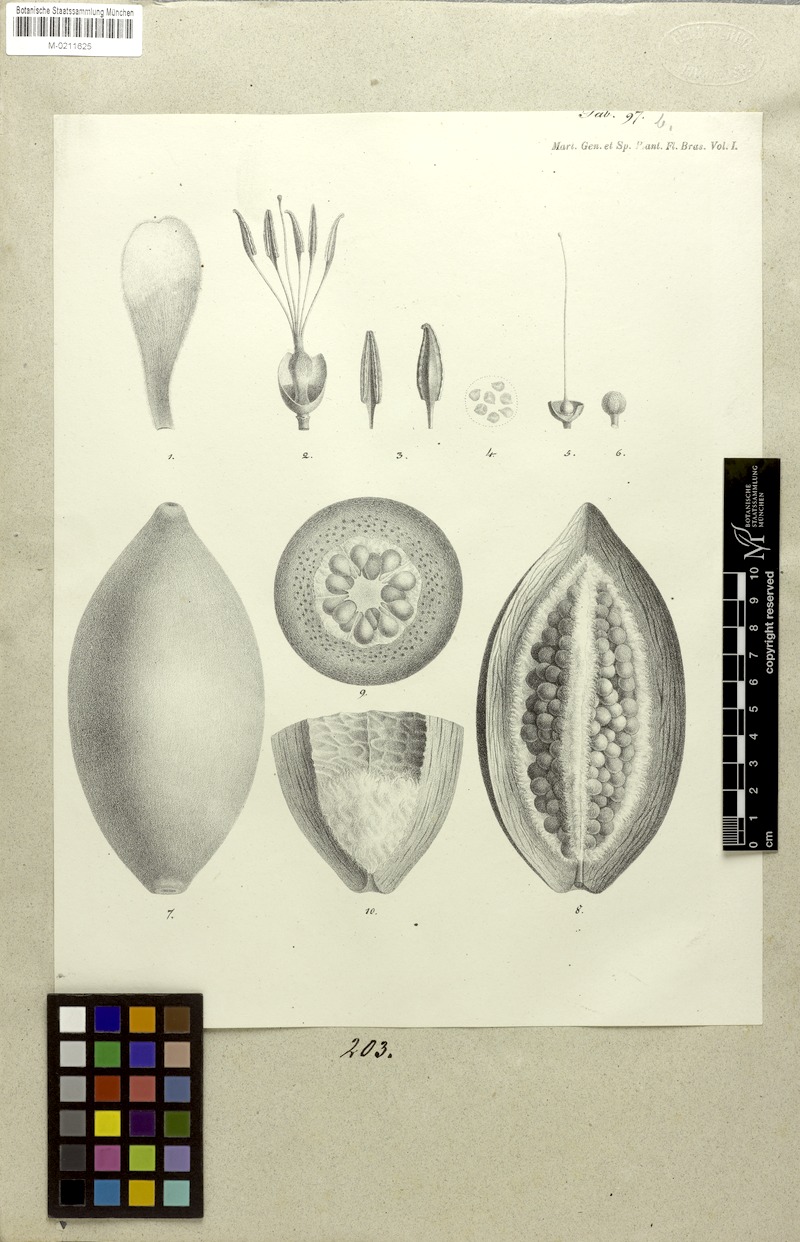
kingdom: Plantae
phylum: Tracheophyta
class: Magnoliopsida
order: Malvales
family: Malvaceae
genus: Ceiba
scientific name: Ceiba erianthos
